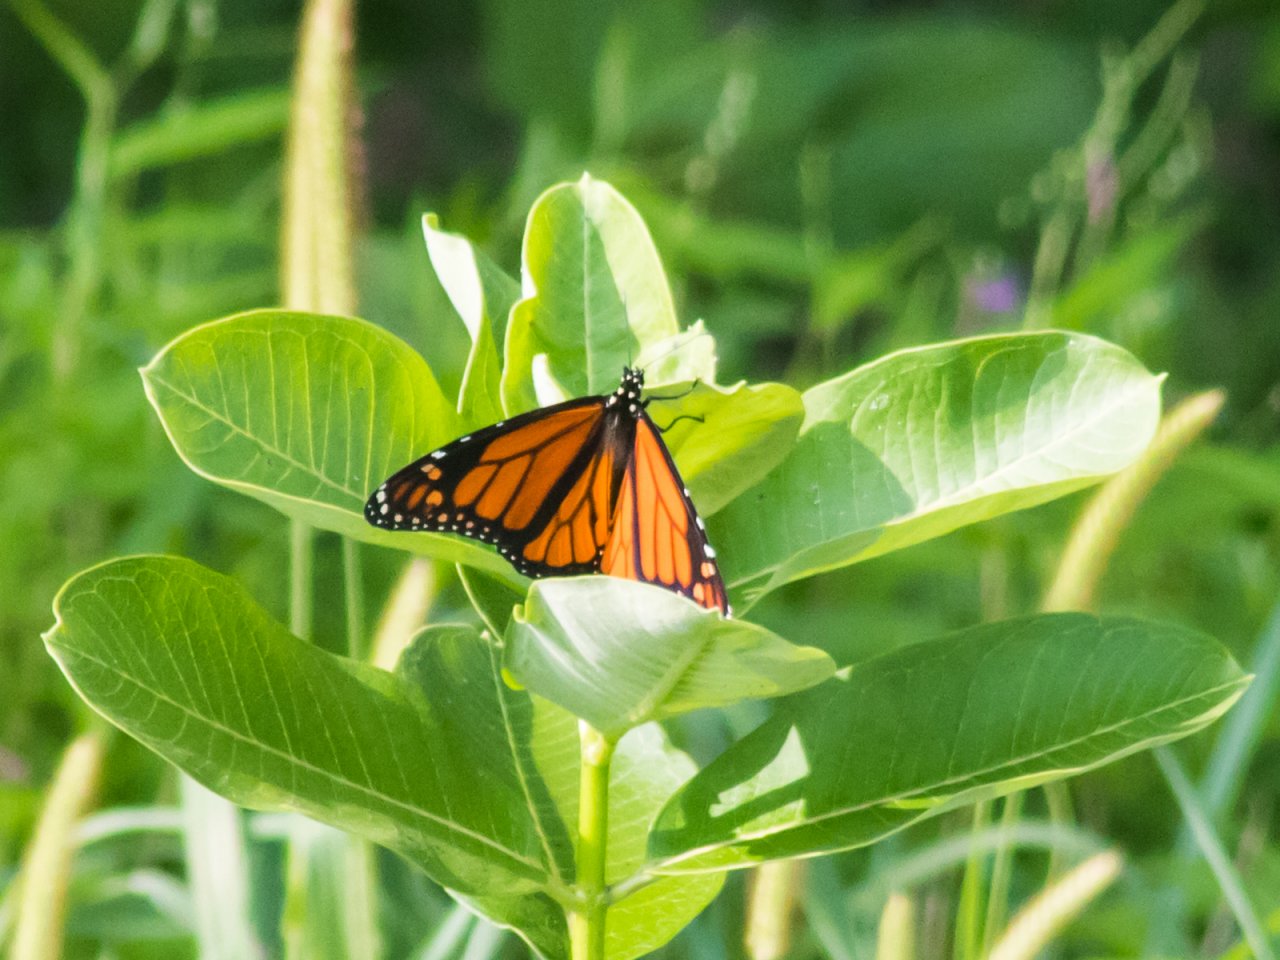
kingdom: Animalia
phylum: Arthropoda
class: Insecta
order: Lepidoptera
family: Nymphalidae
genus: Danaus
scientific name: Danaus plexippus
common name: Monarch
